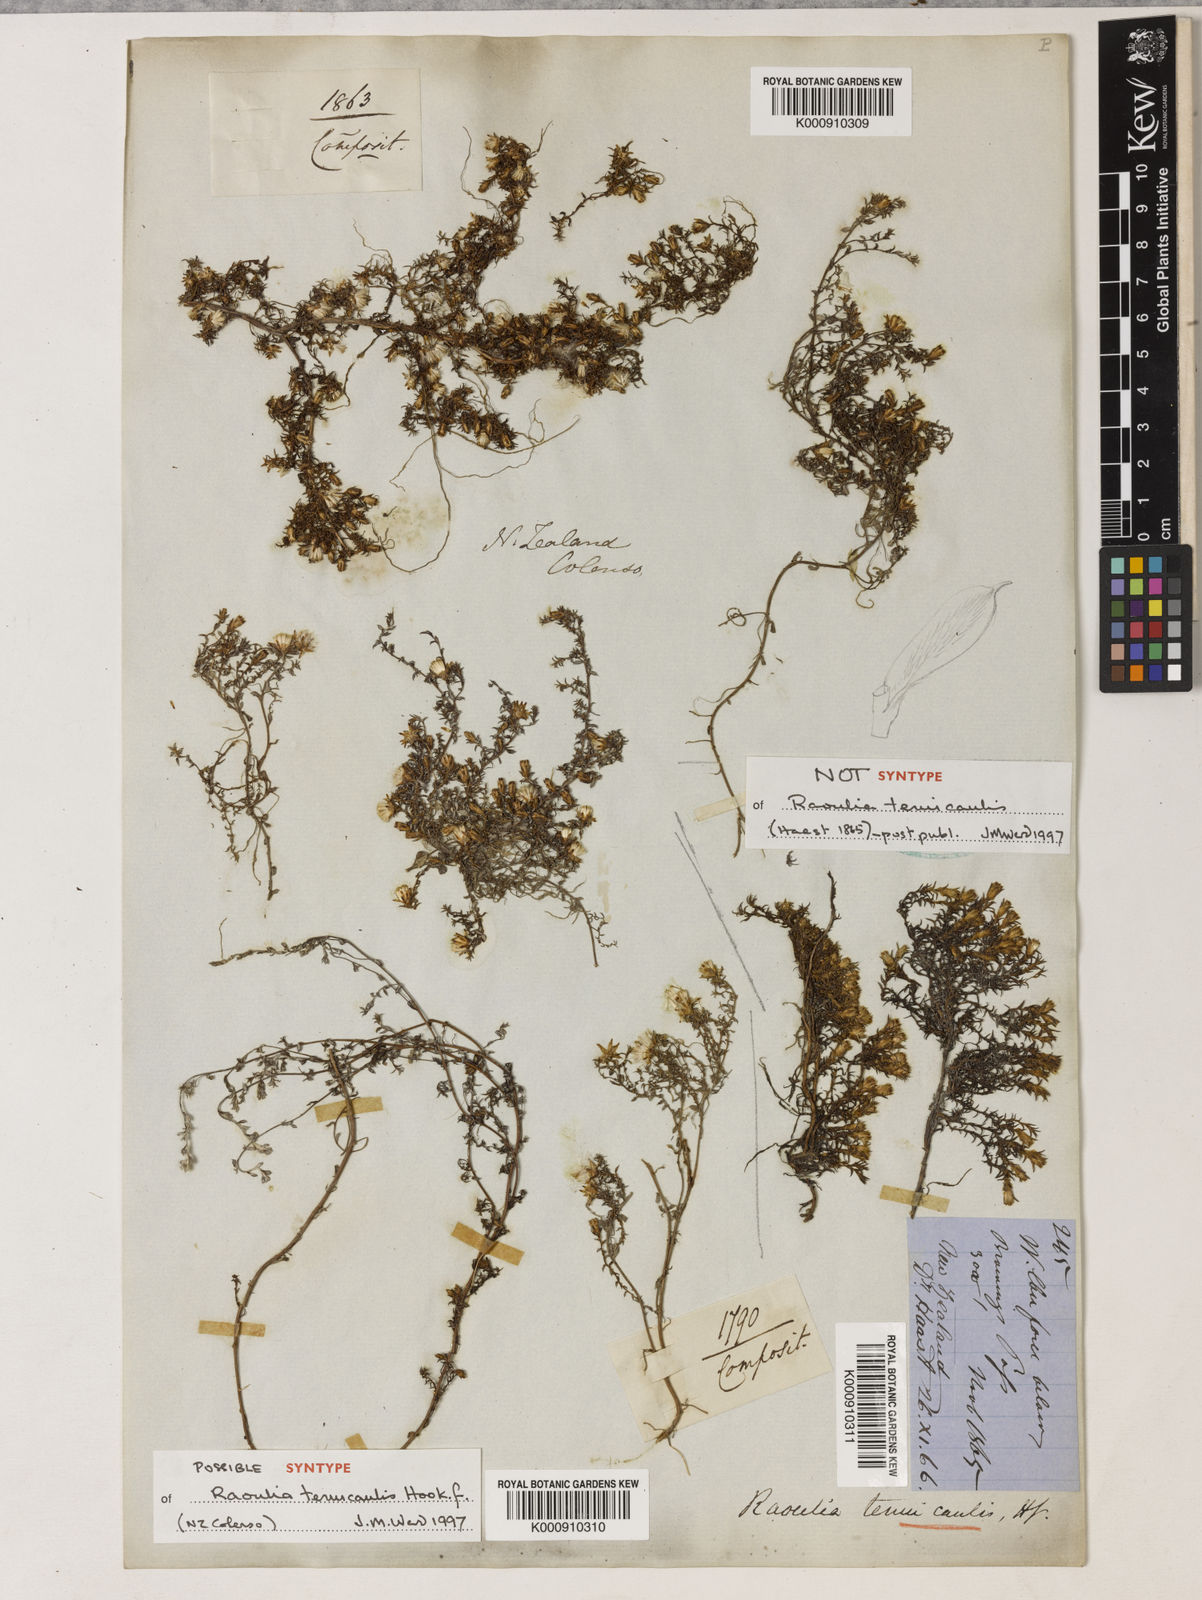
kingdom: Plantae
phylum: Tracheophyta
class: Magnoliopsida
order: Asterales
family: Asteraceae
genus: Raoulia
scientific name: Raoulia tenuicaulis
